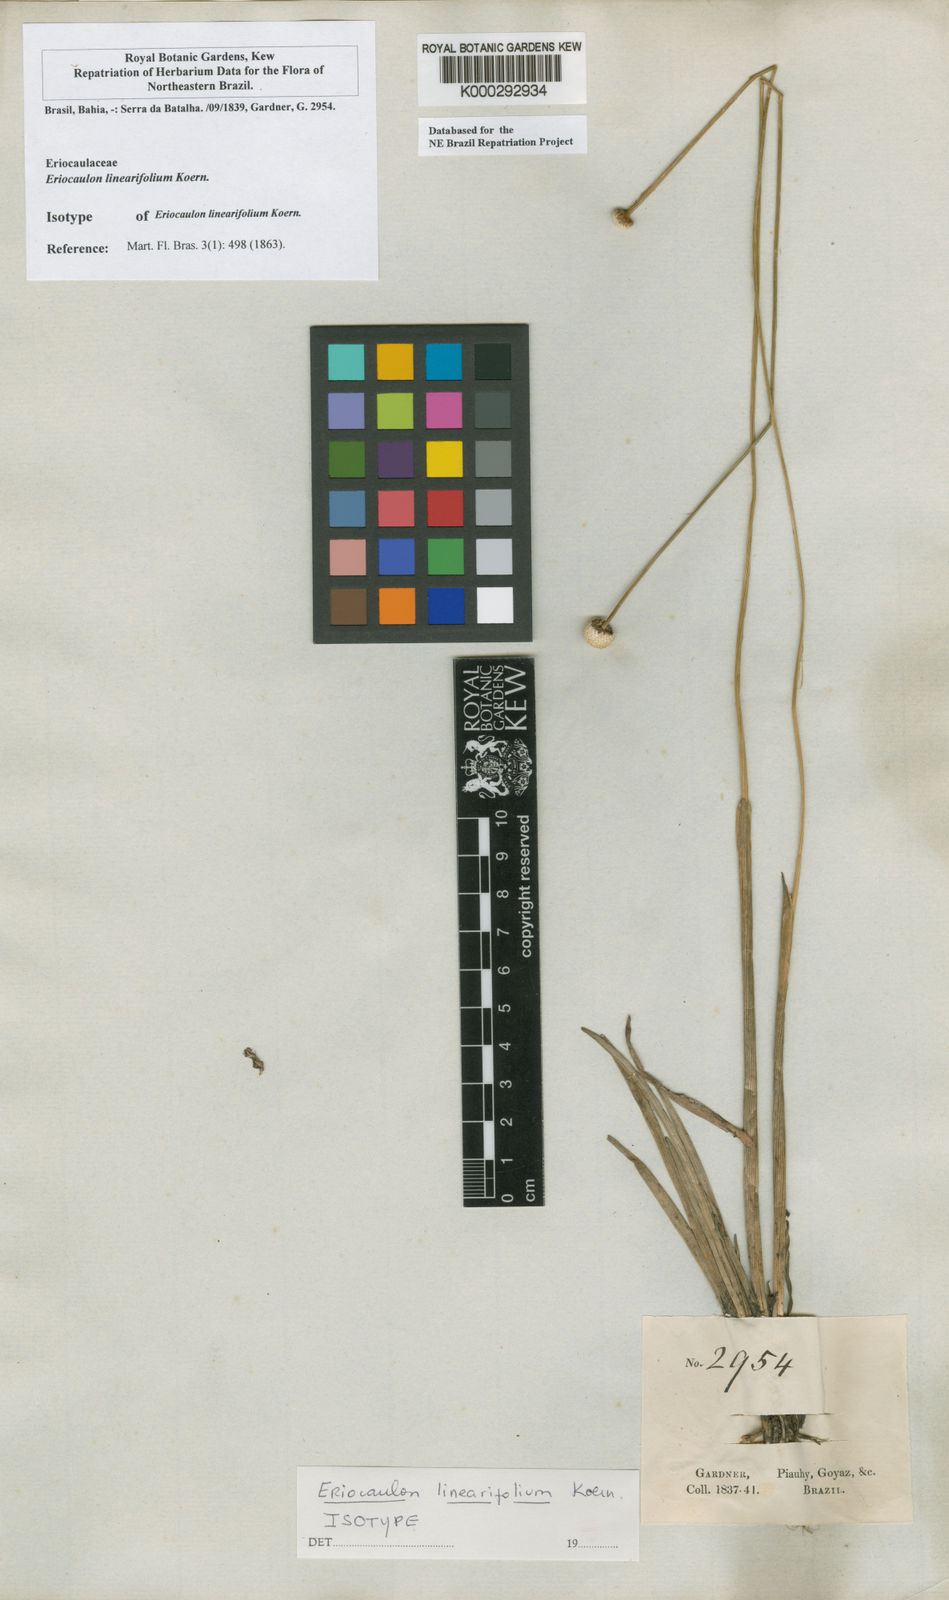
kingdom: Plantae
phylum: Tracheophyta
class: Liliopsida
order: Poales
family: Eriocaulaceae
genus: Eriocaulon
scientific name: Eriocaulon
